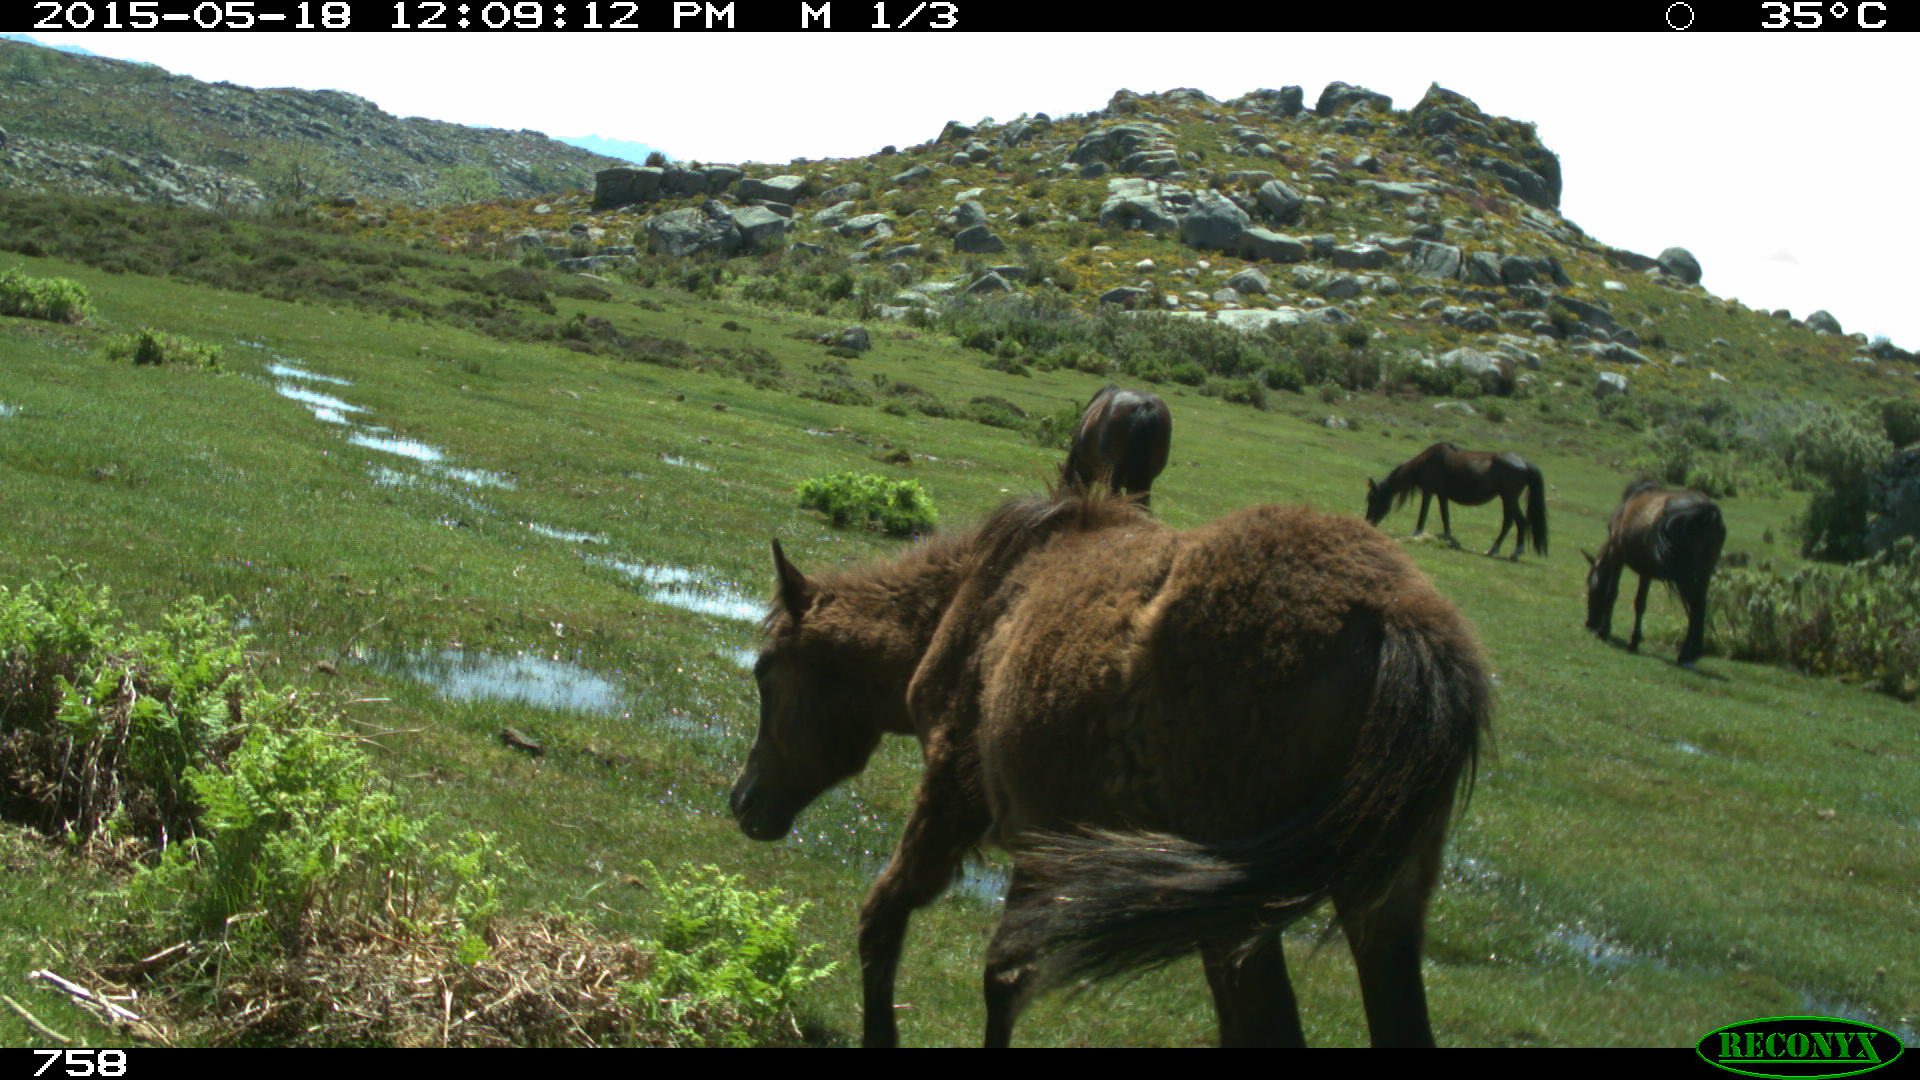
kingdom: Animalia
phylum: Chordata
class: Mammalia
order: Perissodactyla
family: Equidae
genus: Equus
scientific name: Equus caballus
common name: Horse
